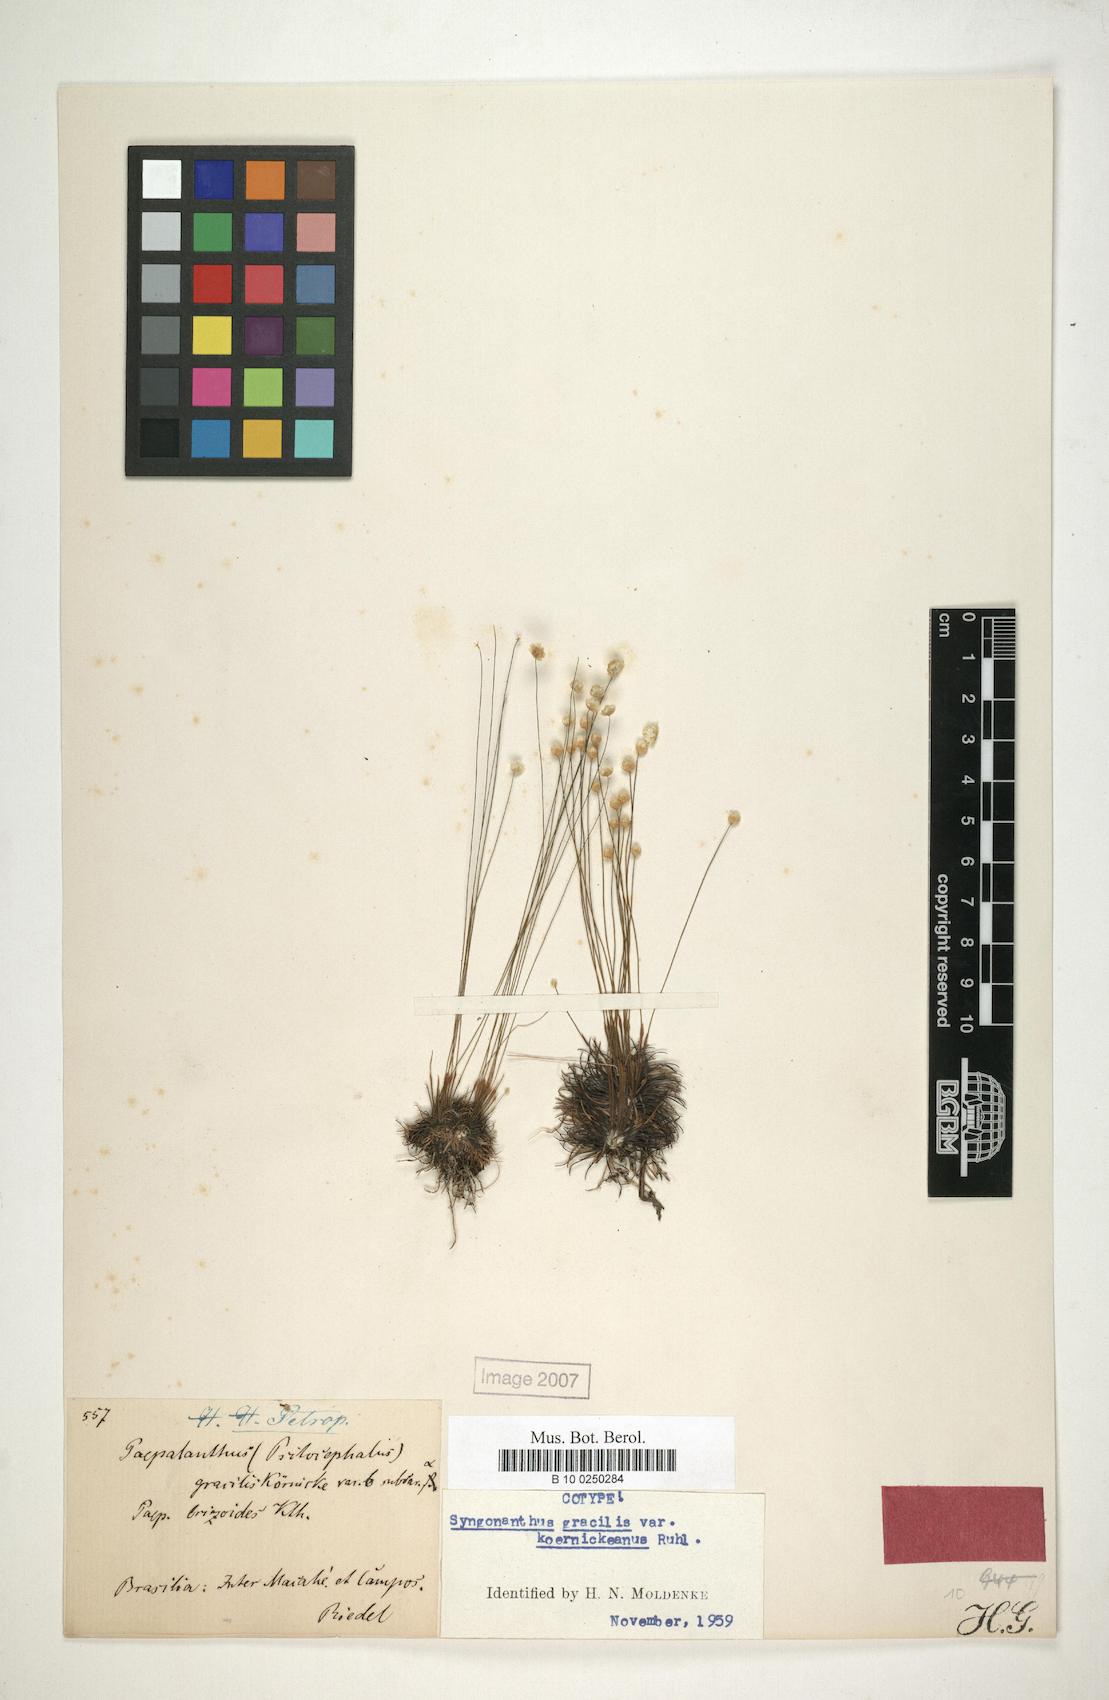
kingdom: Plantae
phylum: Tracheophyta
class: Liliopsida
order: Poales
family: Eriocaulaceae
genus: Syngonanthus
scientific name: Syngonanthus gracilis
